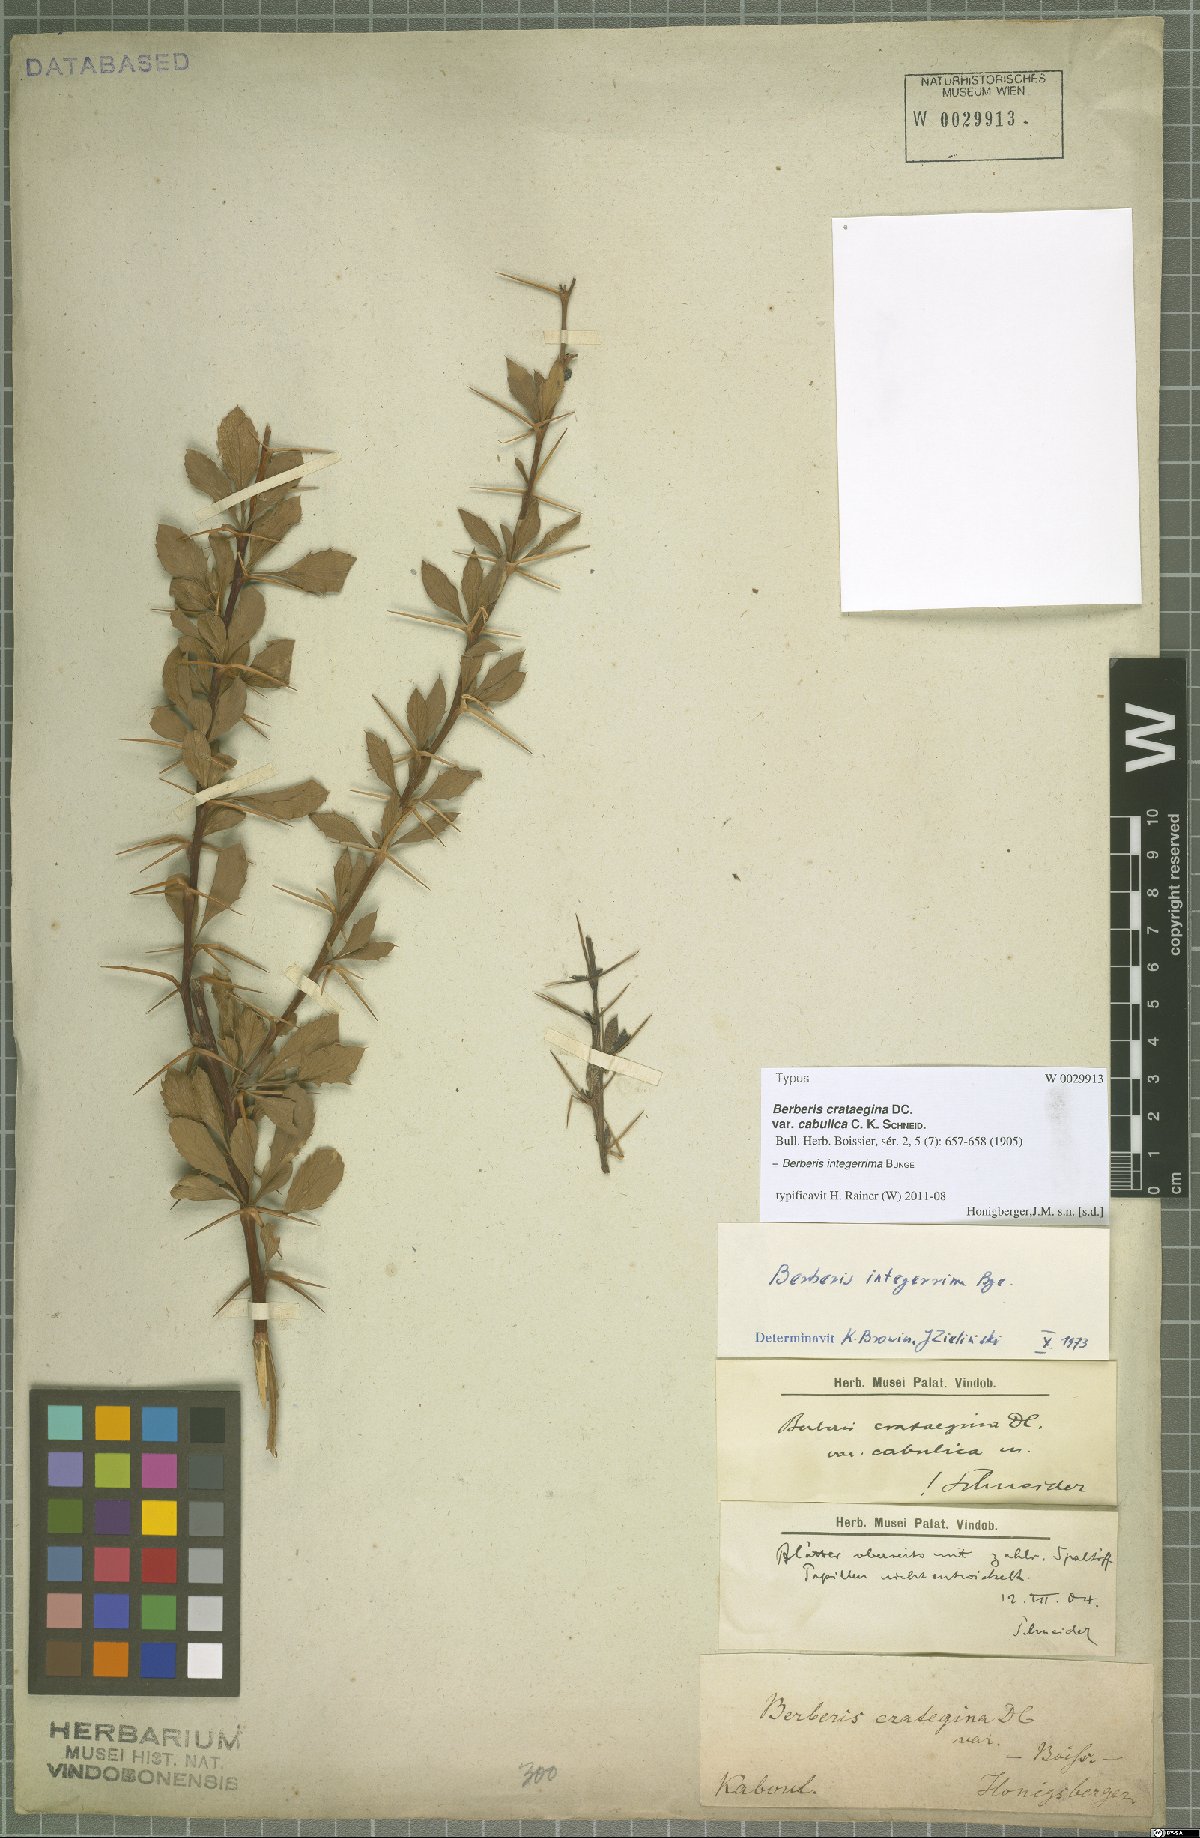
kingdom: Plantae
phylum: Tracheophyta
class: Magnoliopsida
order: Ranunculales
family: Berberidaceae
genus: Berberis
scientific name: Berberis integerrima
